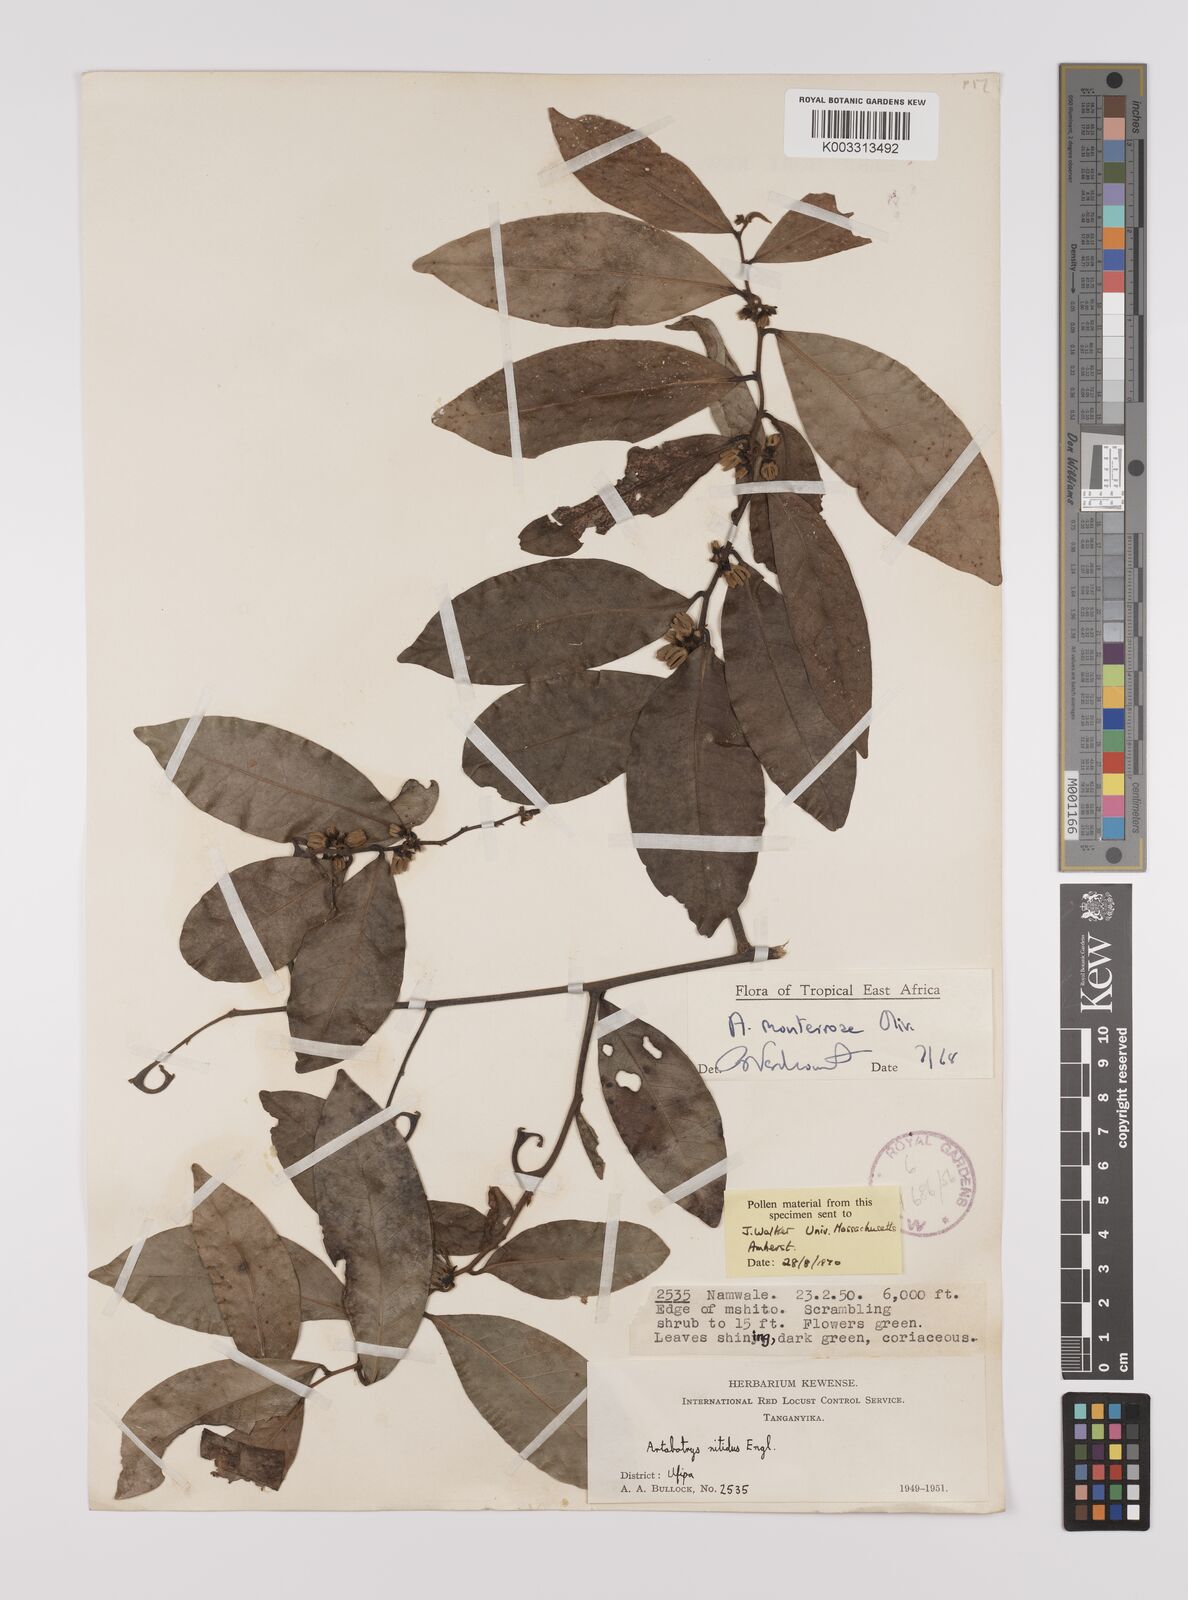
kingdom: Plantae
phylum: Tracheophyta
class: Magnoliopsida
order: Magnoliales
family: Annonaceae
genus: Artabotrys
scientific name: Artabotrys monteiroae
